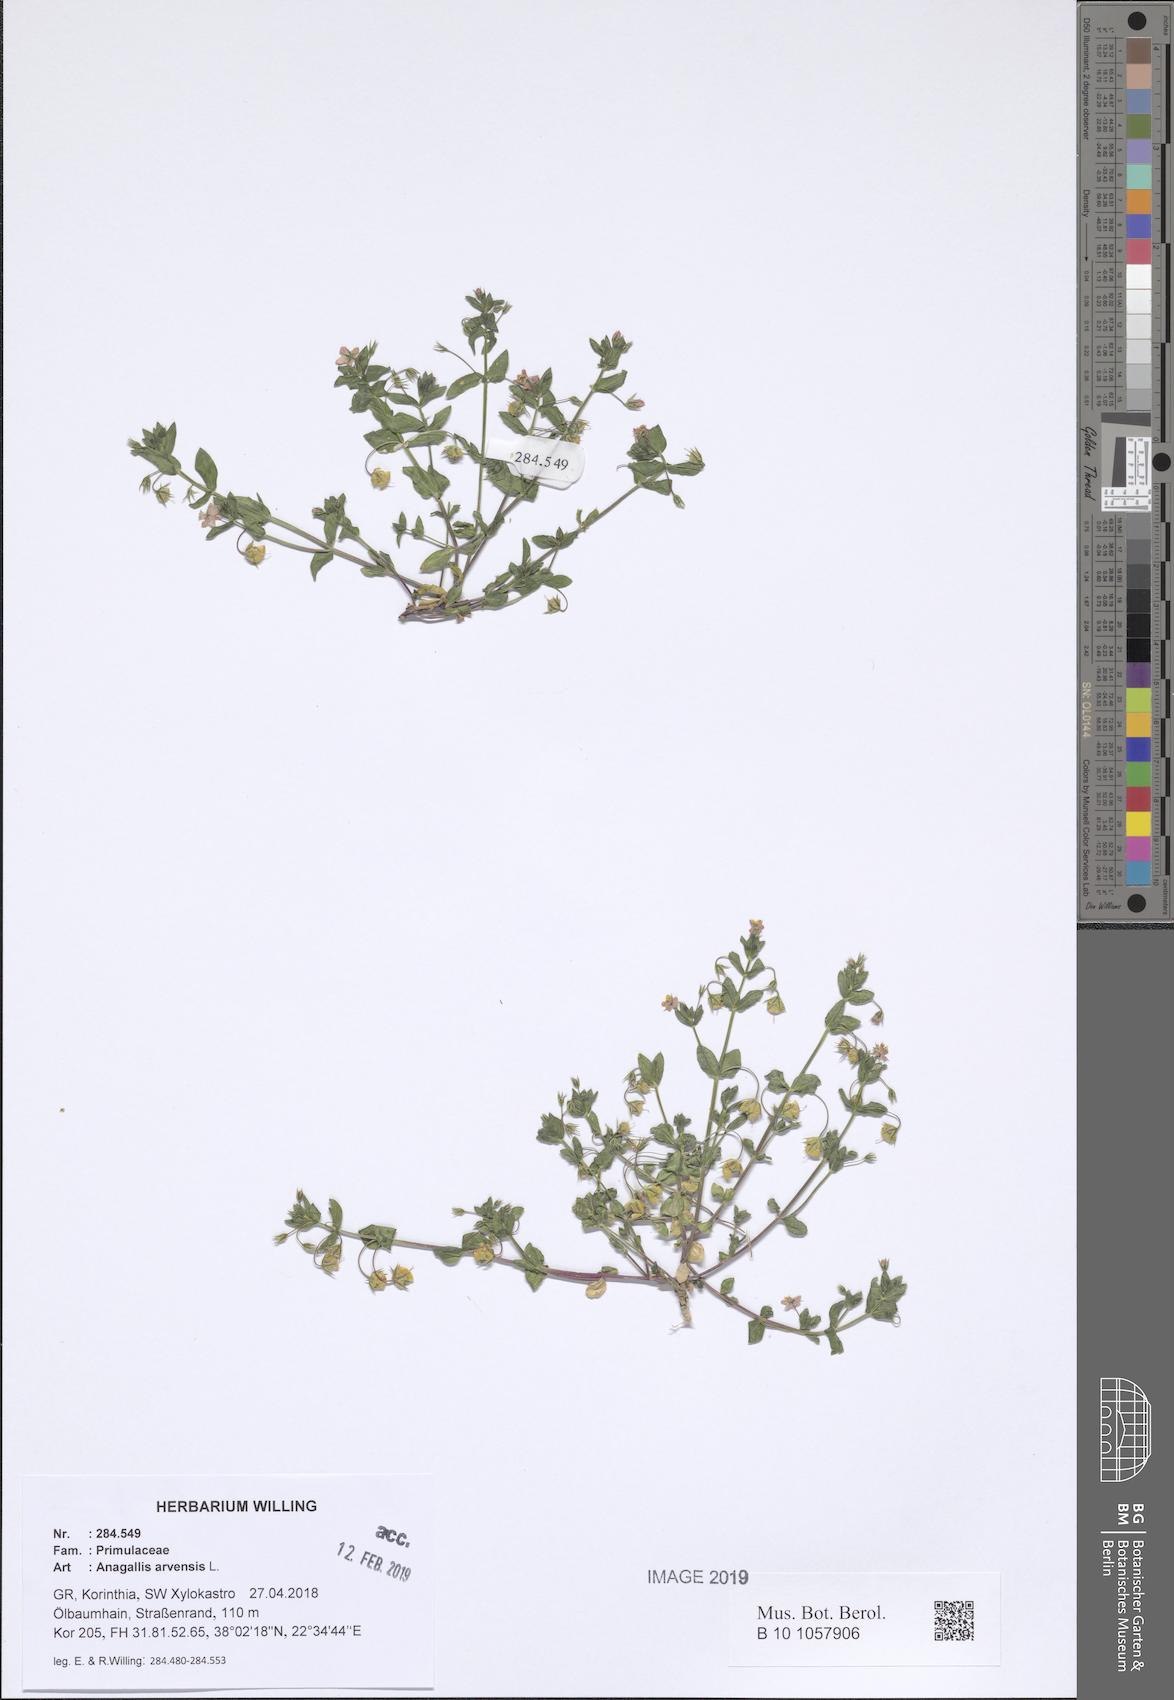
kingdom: Plantae
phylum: Tracheophyta
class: Magnoliopsida
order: Ericales
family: Primulaceae
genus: Lysimachia
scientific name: Lysimachia arvensis
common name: Scarlet pimpernel
